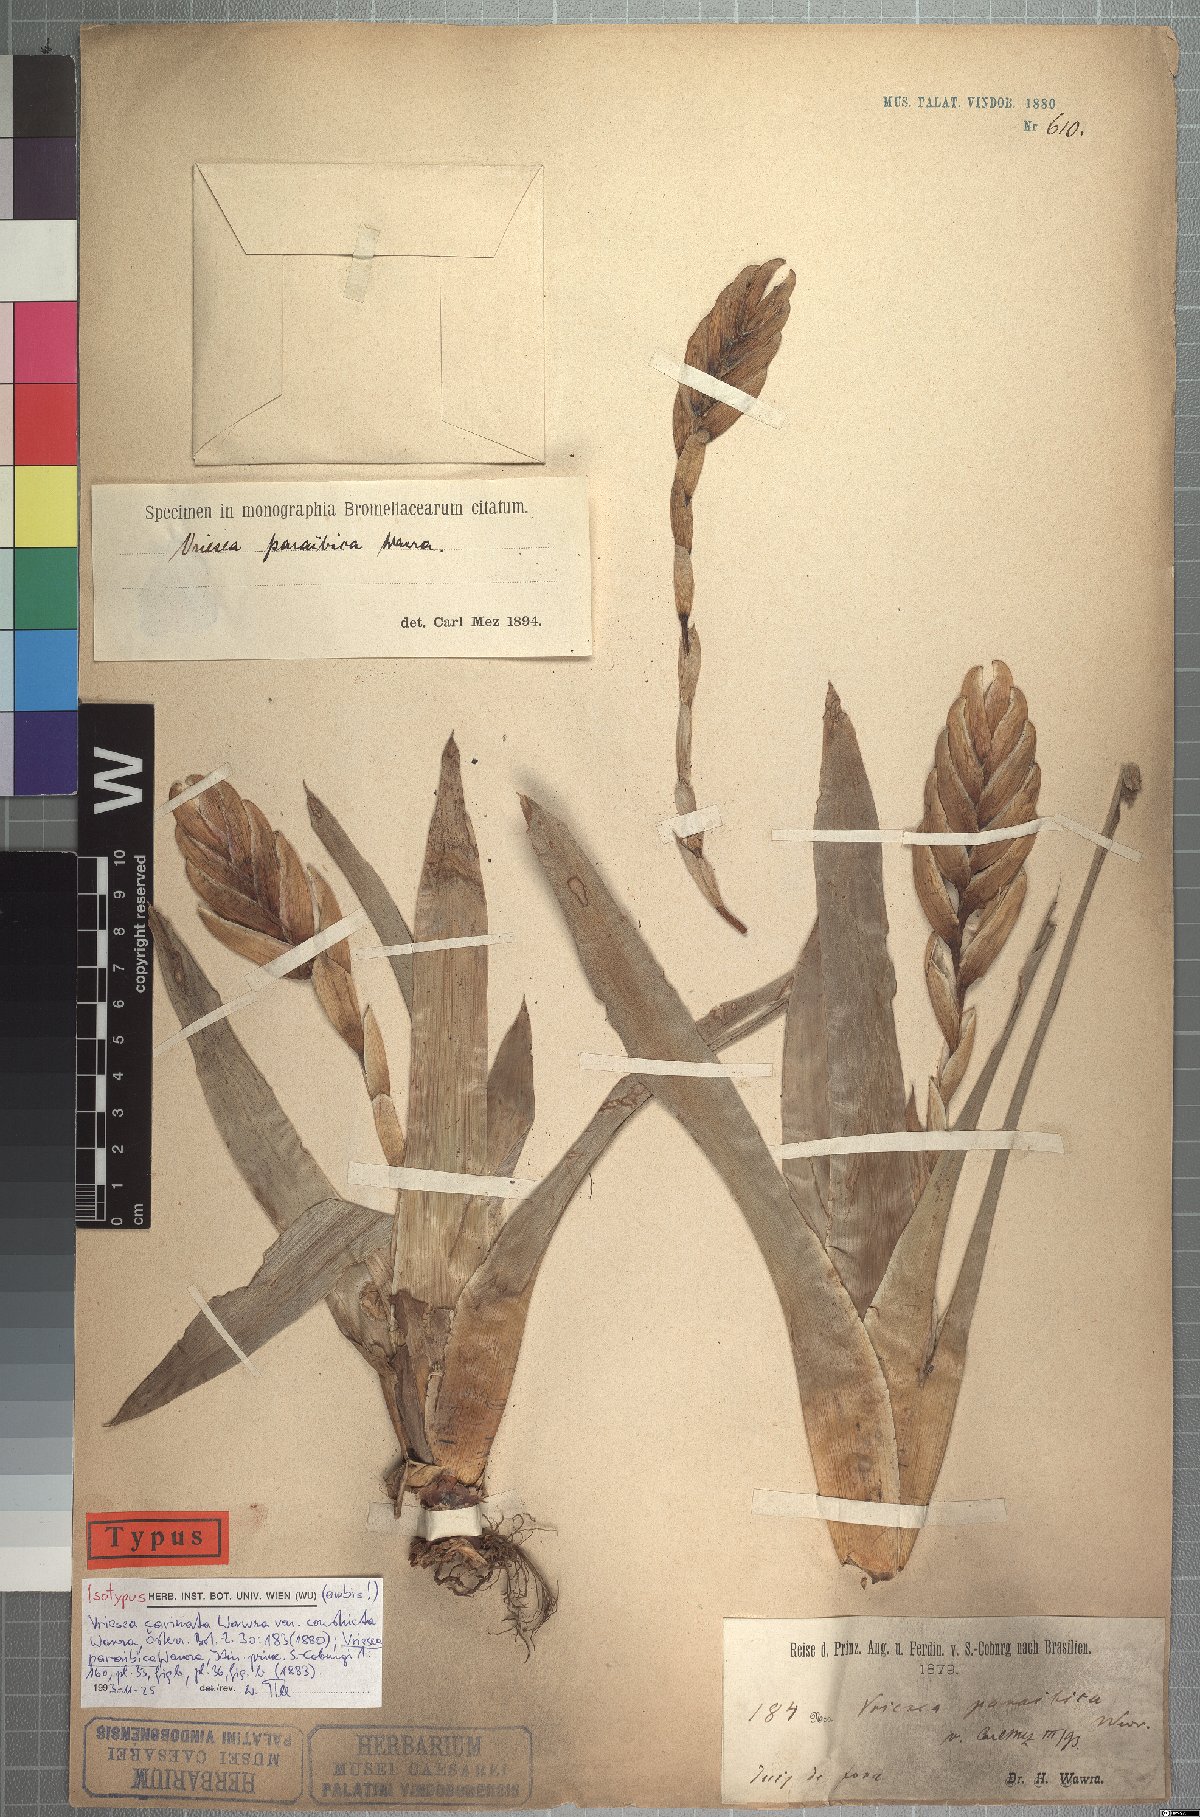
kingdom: Plantae
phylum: Tracheophyta
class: Liliopsida
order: Poales
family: Bromeliaceae
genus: Vriesea
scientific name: Vriesea paraibica
